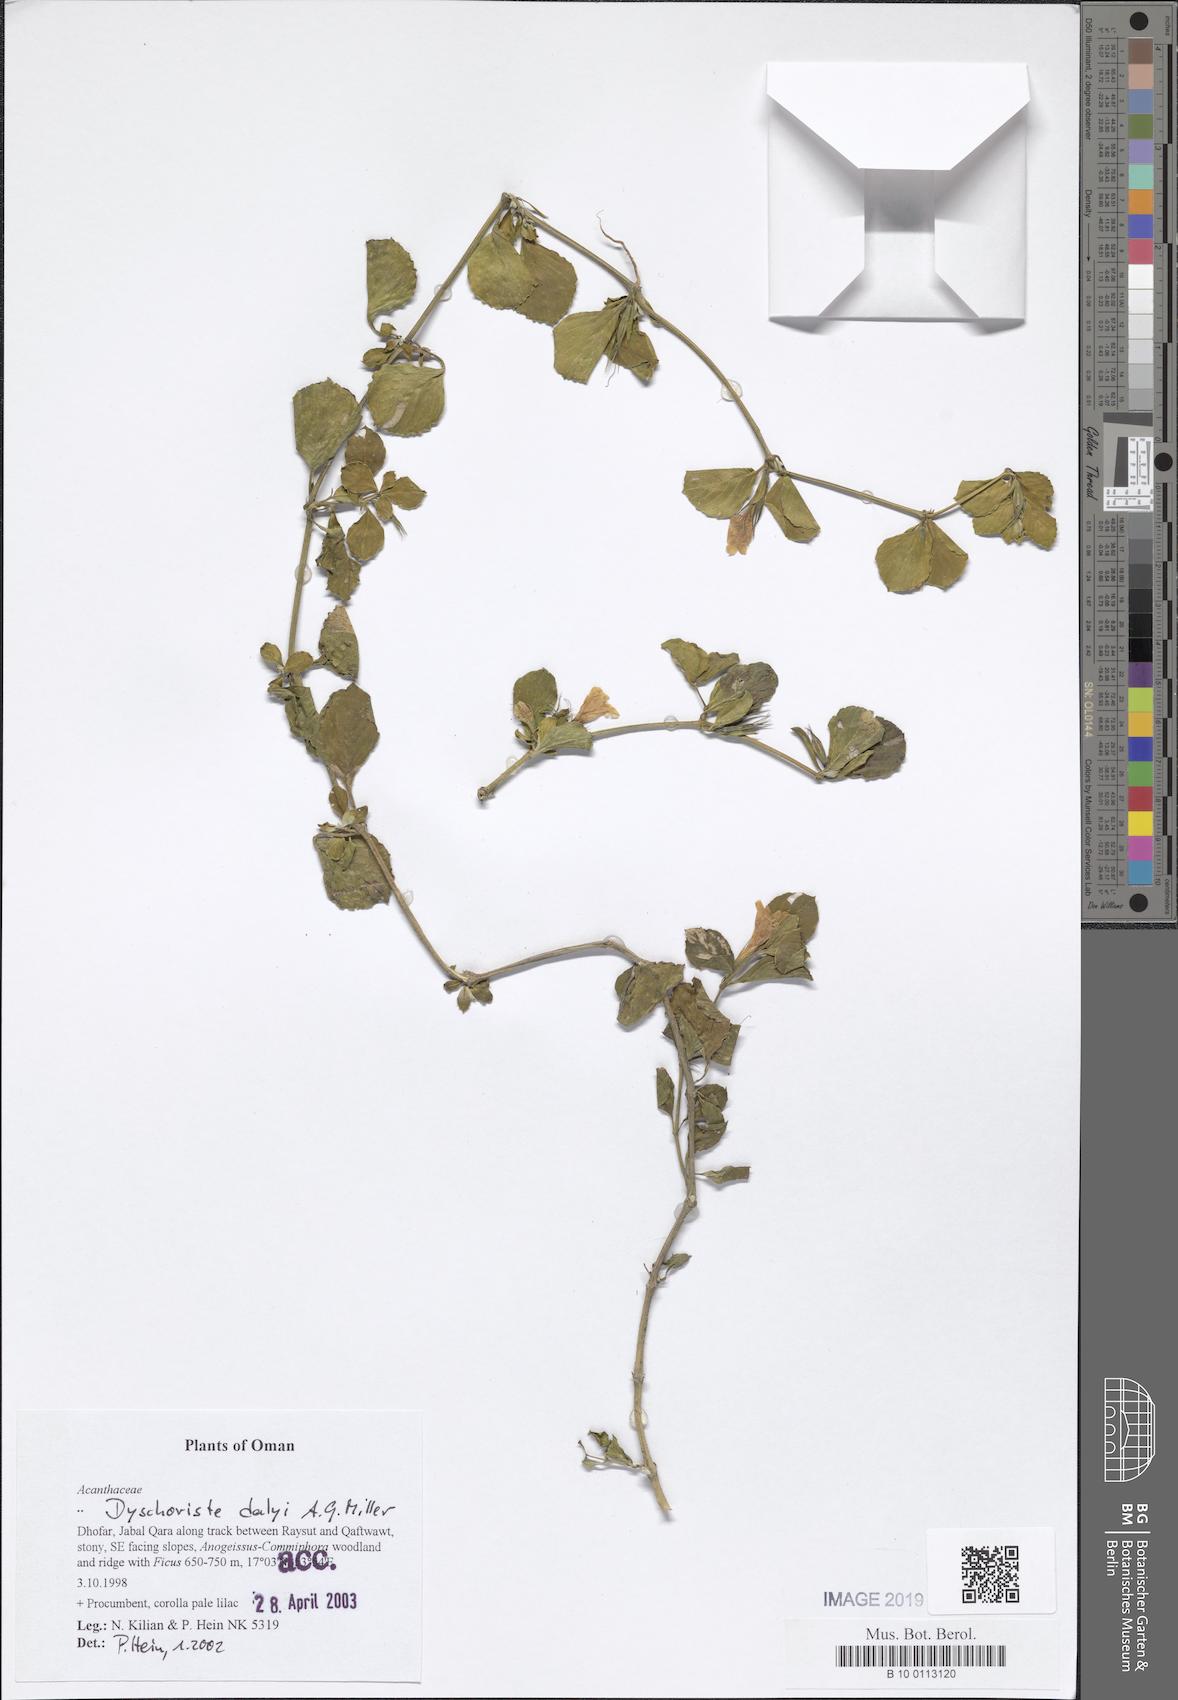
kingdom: Plantae
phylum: Tracheophyta
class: Magnoliopsida
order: Lamiales
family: Acanthaceae
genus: Dyschoriste
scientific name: Dyschoriste dalyi
